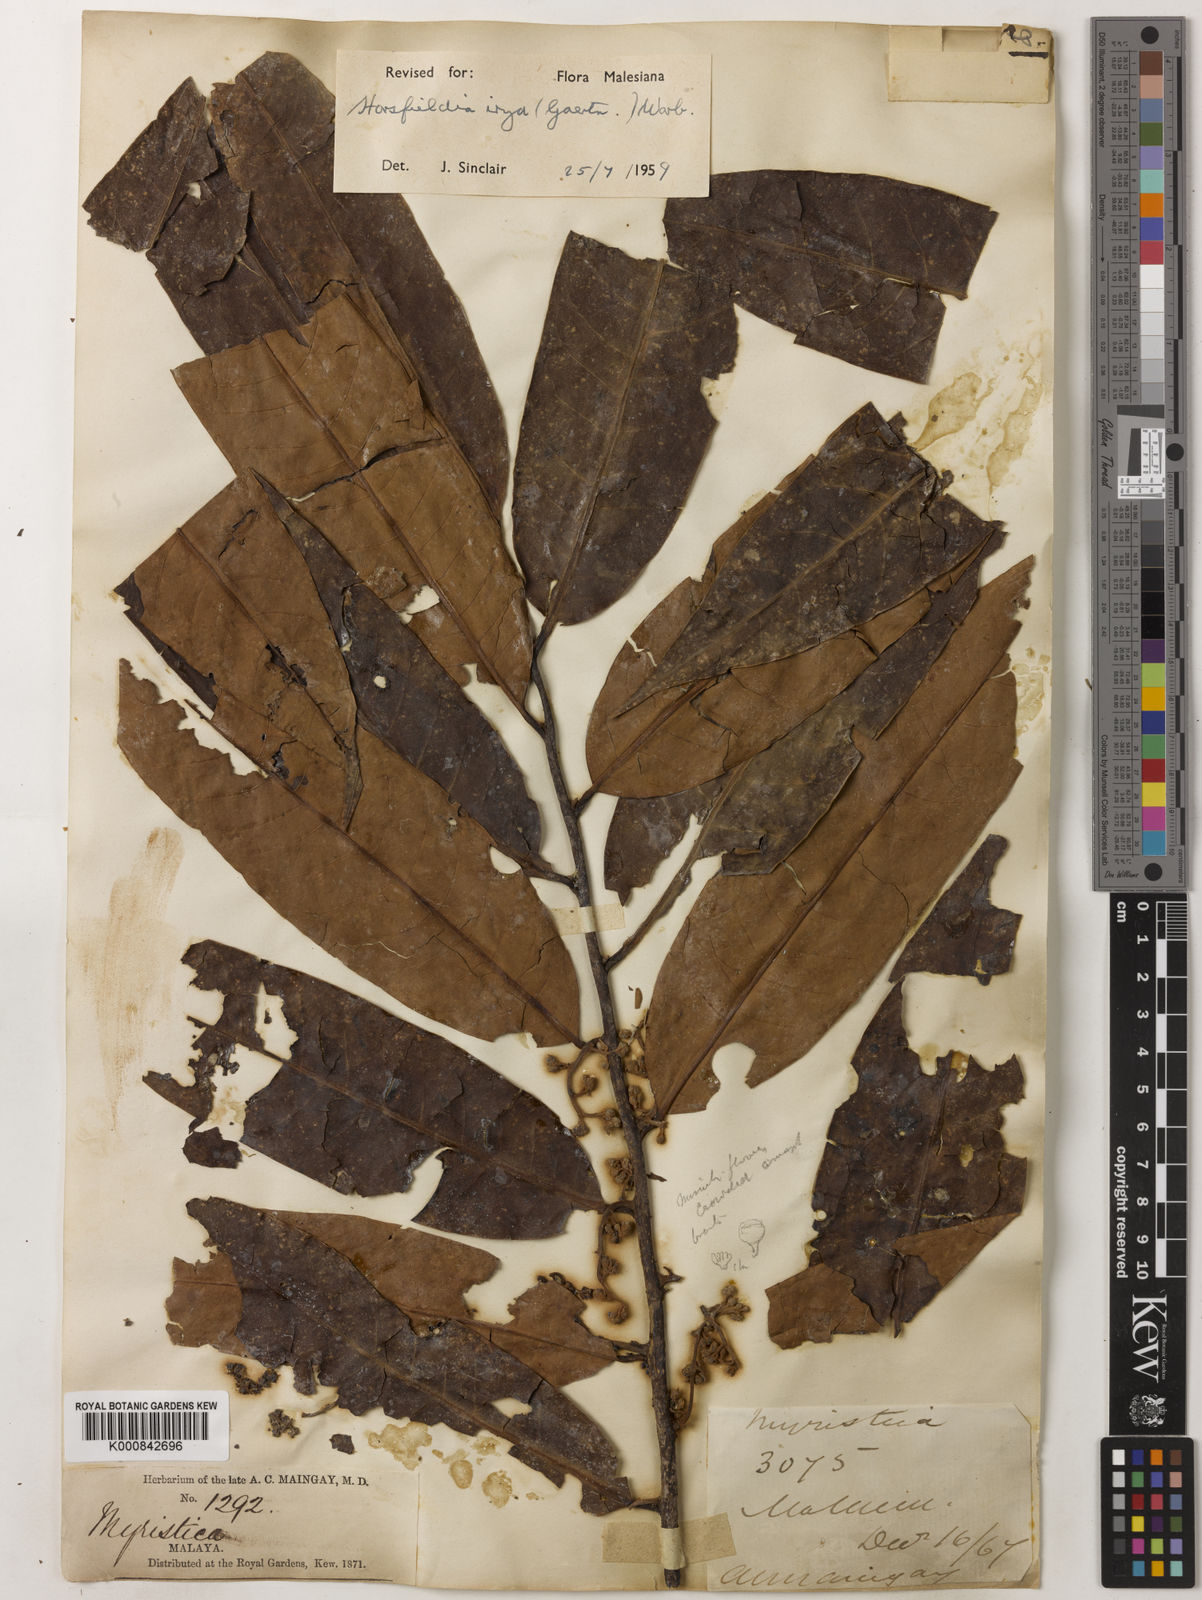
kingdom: Plantae
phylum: Tracheophyta
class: Magnoliopsida
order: Magnoliales
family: Myristicaceae
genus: Horsfieldia
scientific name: Horsfieldia irya
